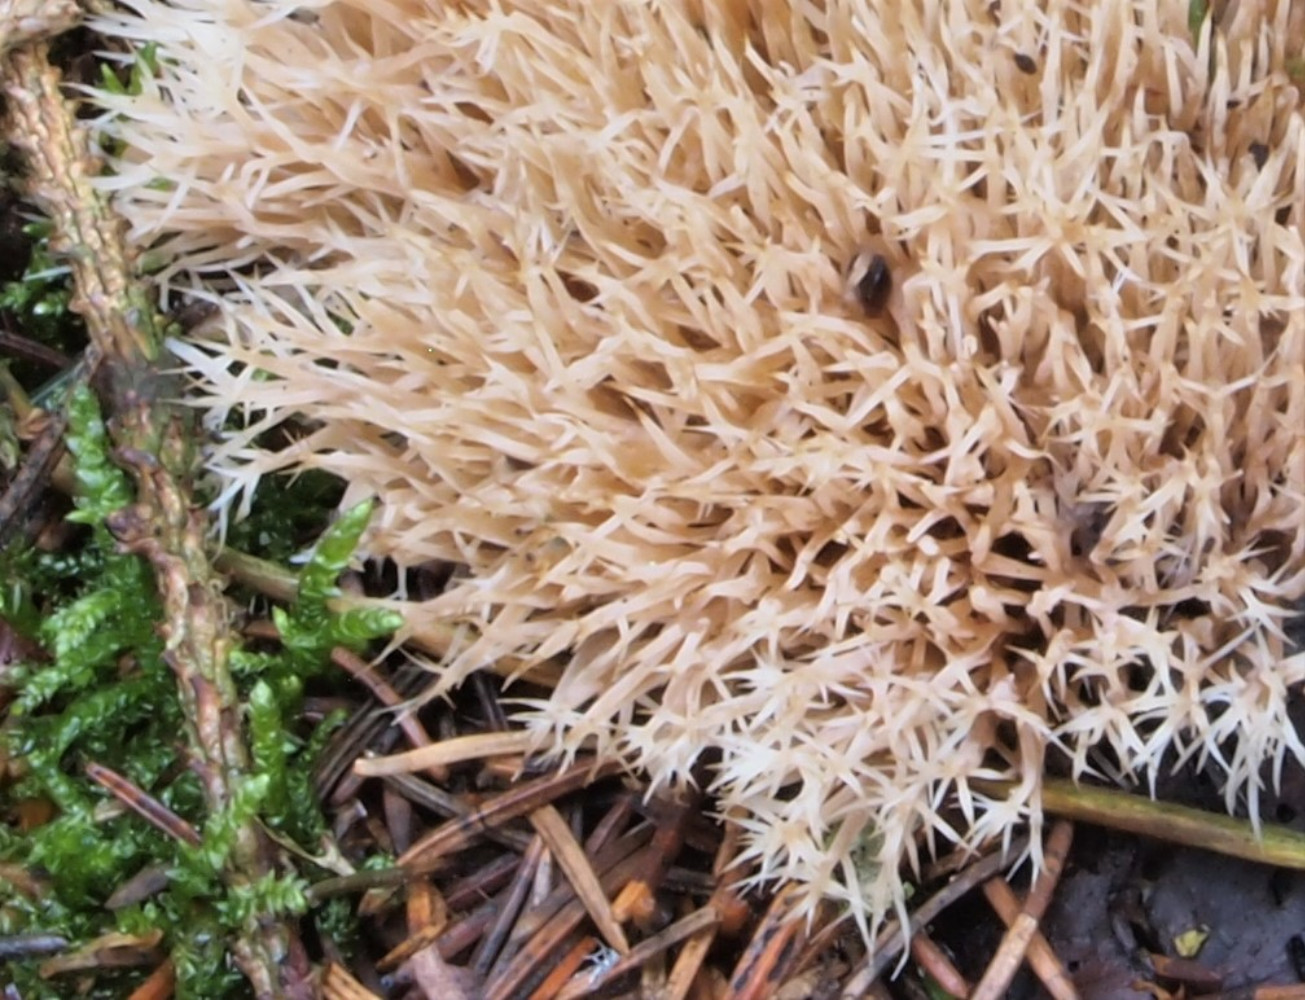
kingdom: Fungi
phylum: Basidiomycota
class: Agaricomycetes
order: Agaricales
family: Pterulaceae
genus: Pterula
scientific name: Pterula multifida
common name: busket fjerkølle
